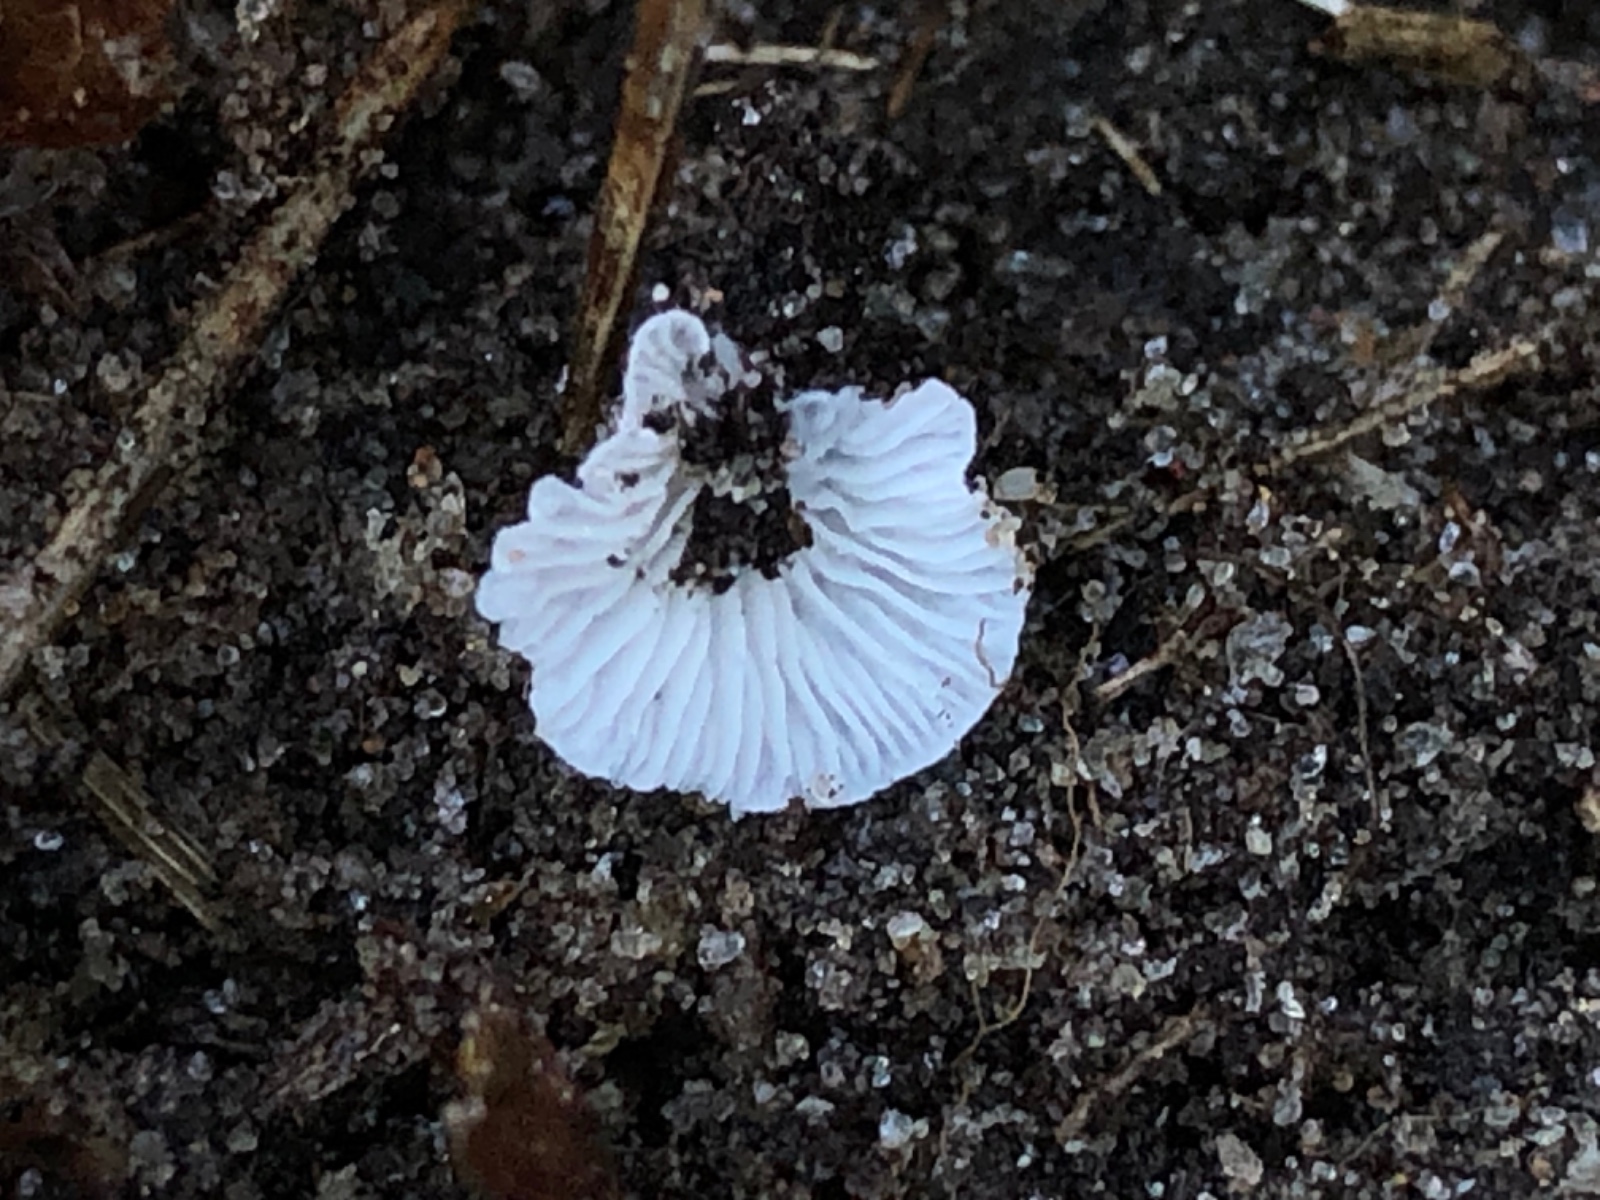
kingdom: Fungi
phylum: Basidiomycota
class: Agaricomycetes
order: Agaricales
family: Entolomataceae
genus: Clitopilus
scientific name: Clitopilus hobsonii
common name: Miller's oysterling
